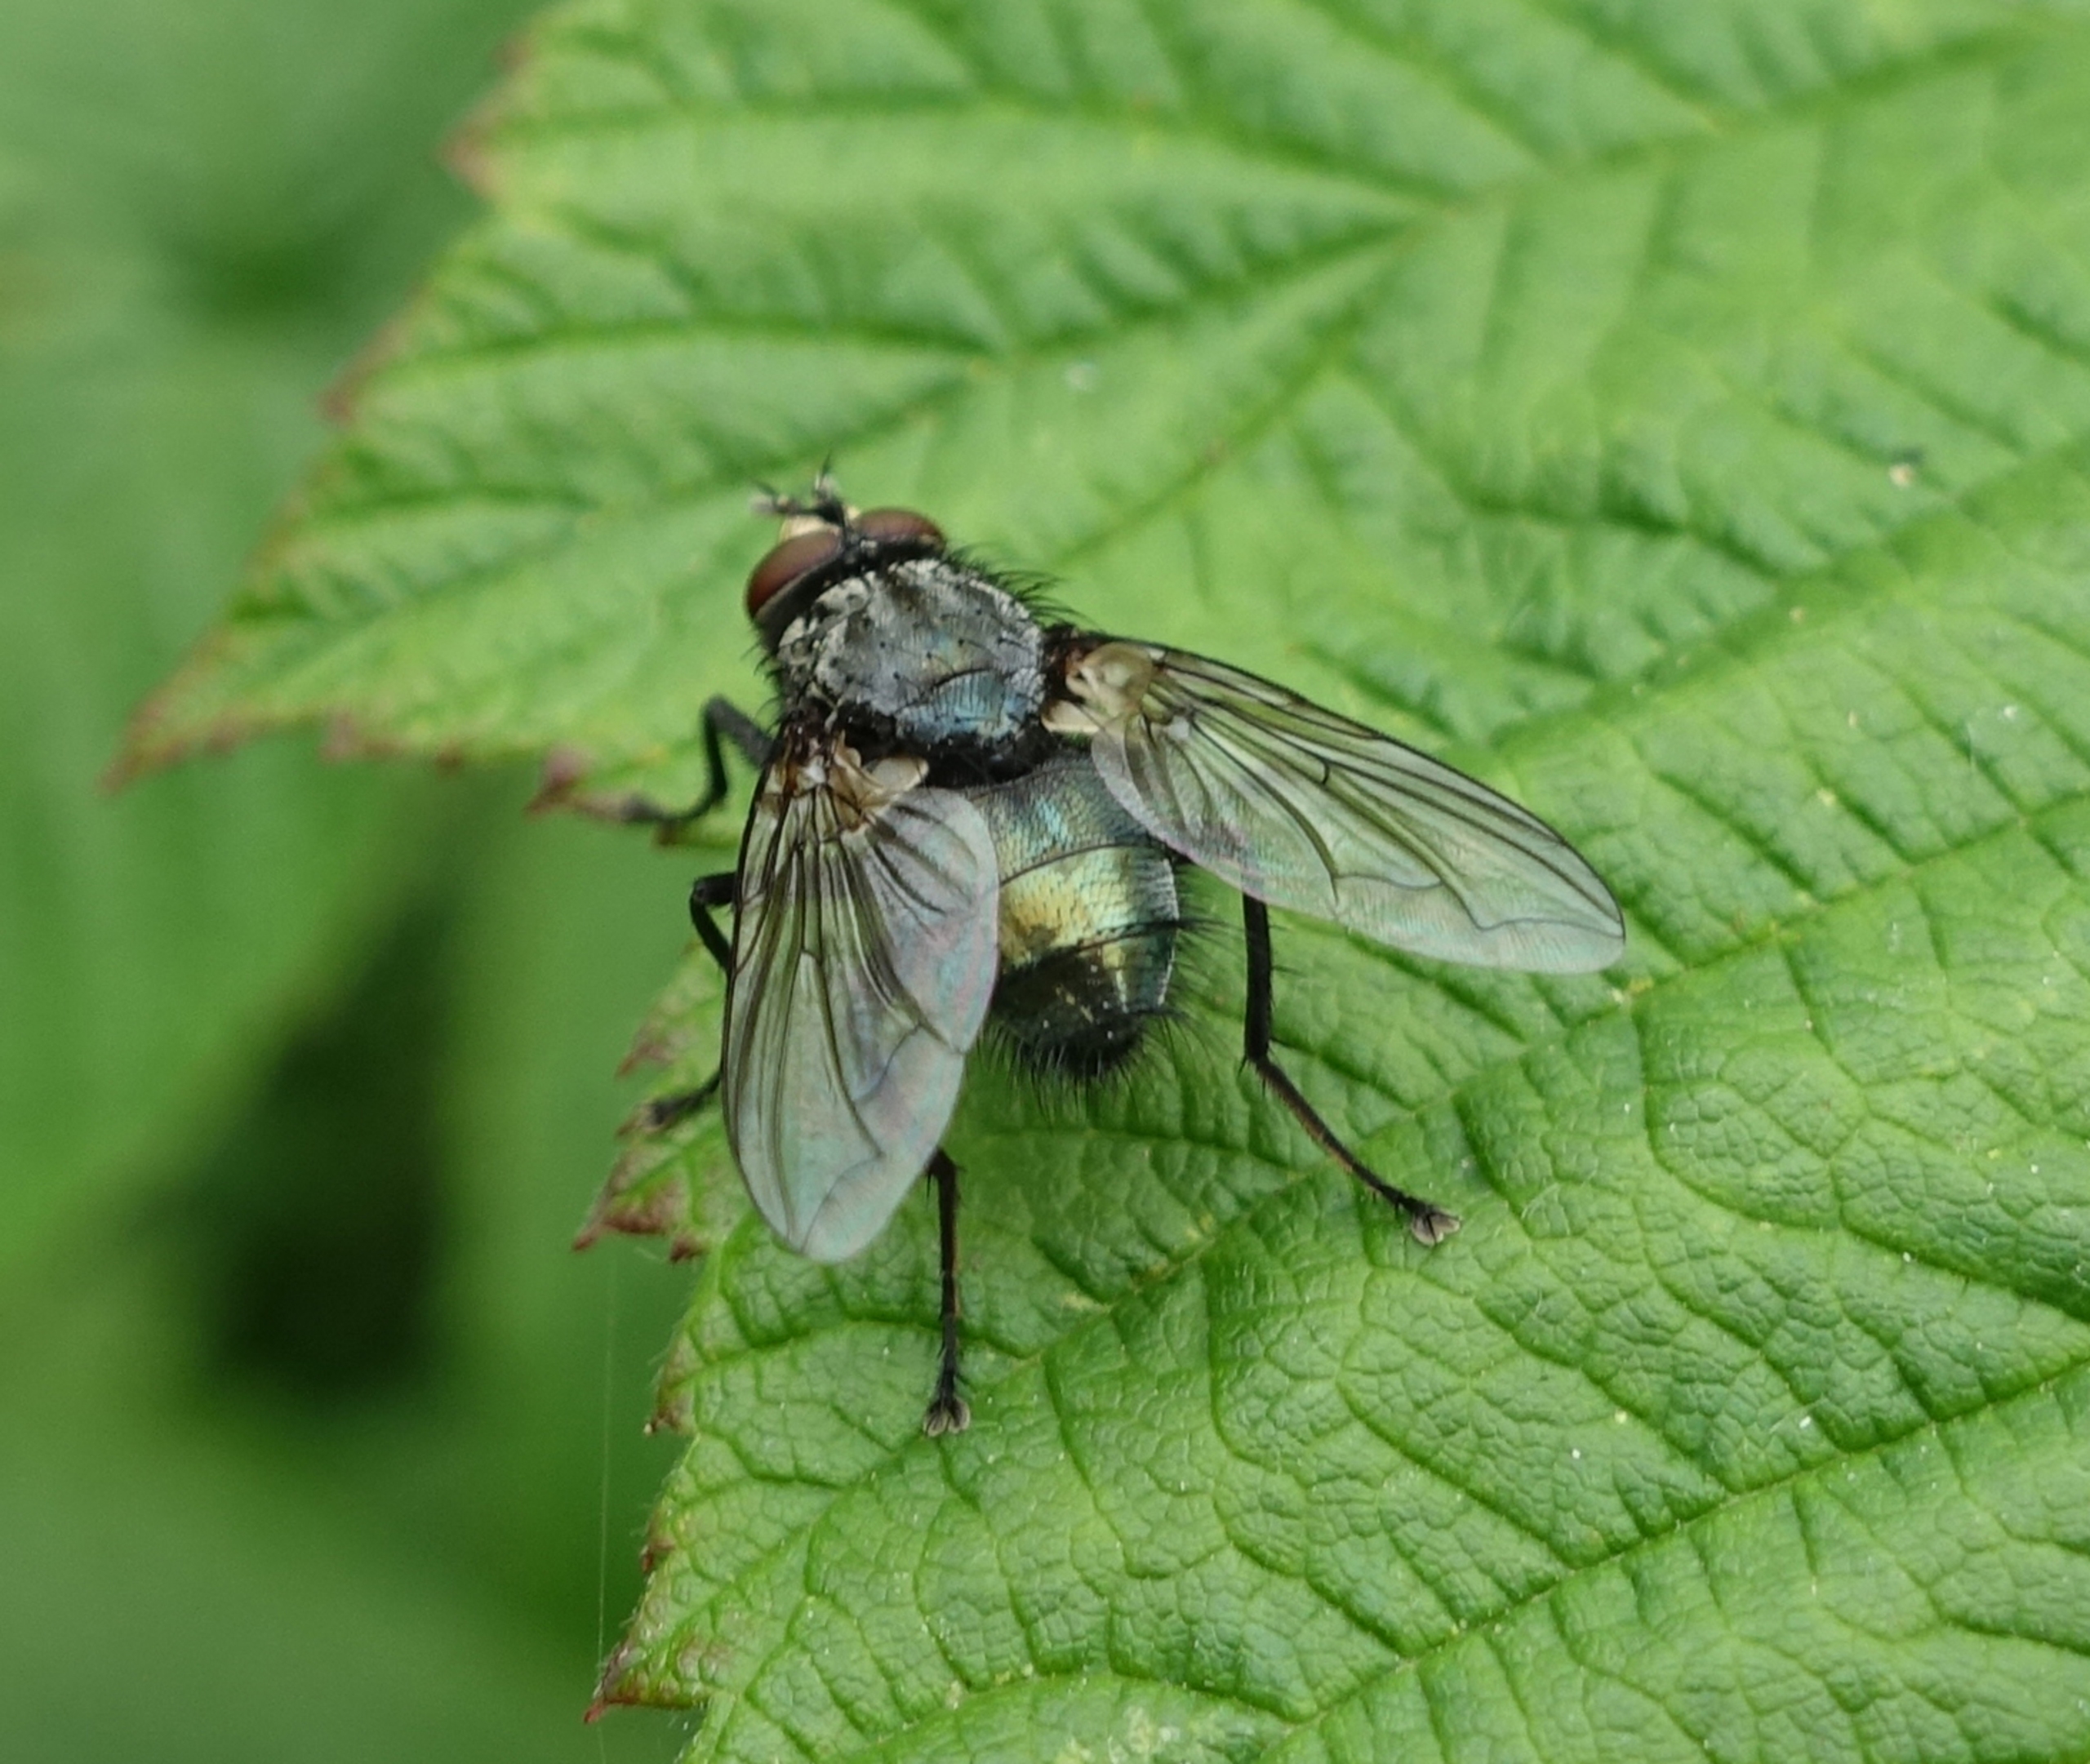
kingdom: Animalia
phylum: Arthropoda
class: Insecta
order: Diptera
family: Calliphoridae
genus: Onesia
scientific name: Onesia sepulcralis
